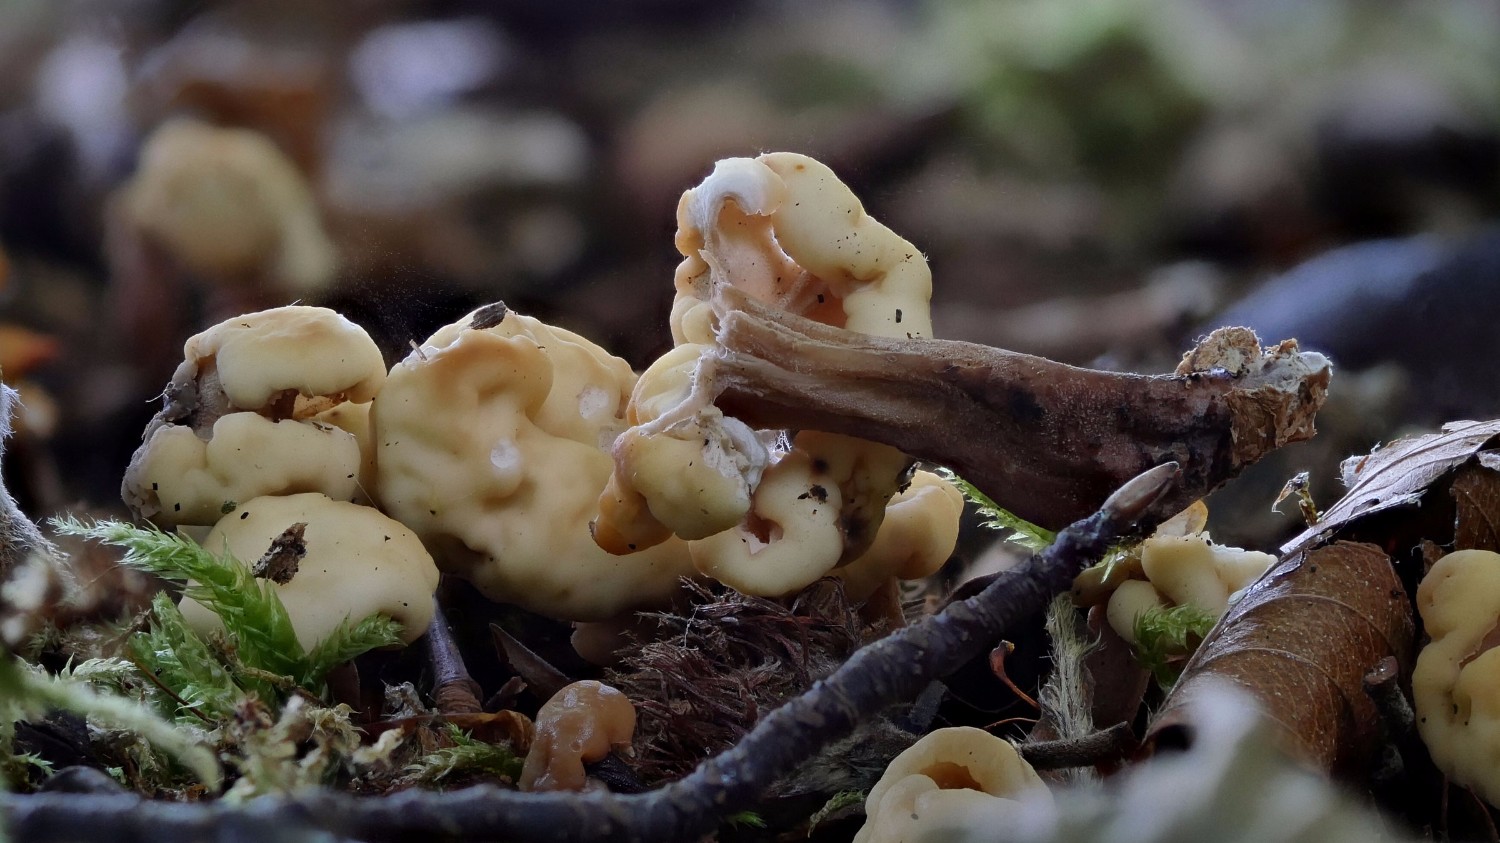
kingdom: Fungi
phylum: Ascomycota
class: Leotiomycetes
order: Rhytismatales
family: Cudoniaceae
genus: Cudonia
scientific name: Cudonia circinans
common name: hekserings-hjelmmorkel
